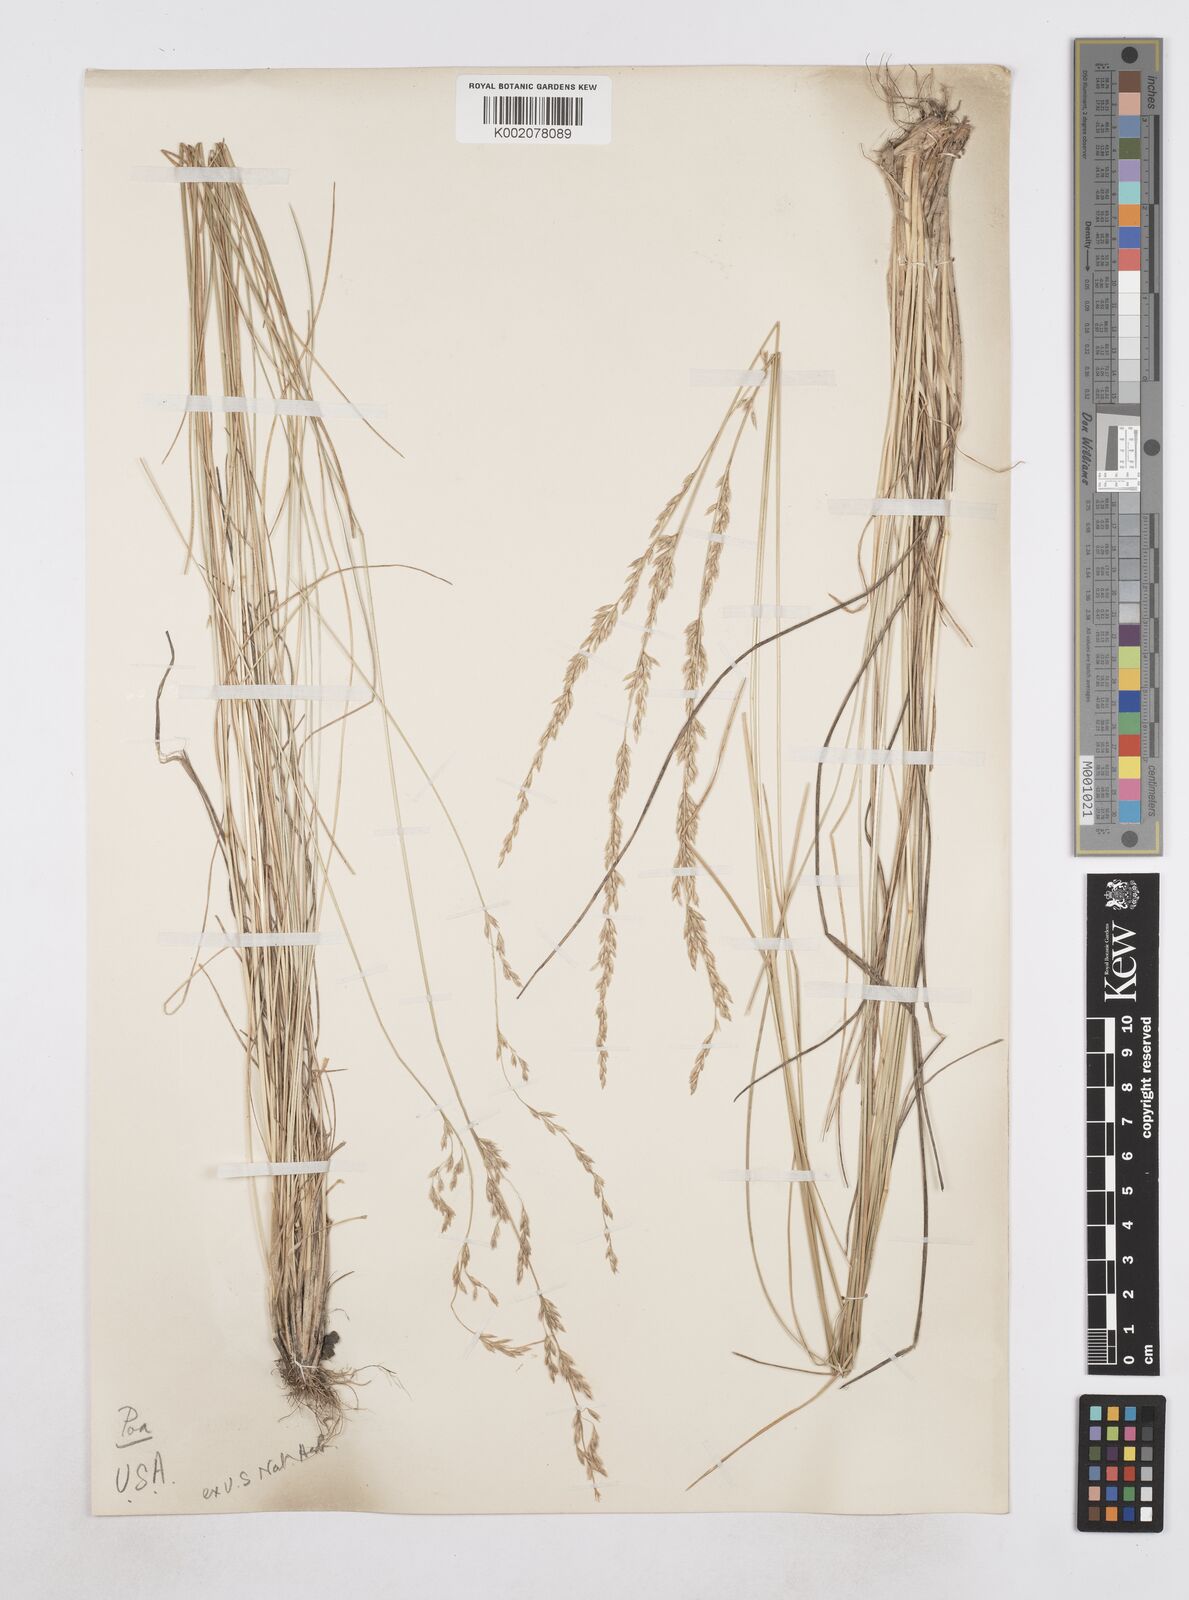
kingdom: Plantae
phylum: Tracheophyta
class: Liliopsida
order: Poales
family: Poaceae
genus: Poa
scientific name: Poa
